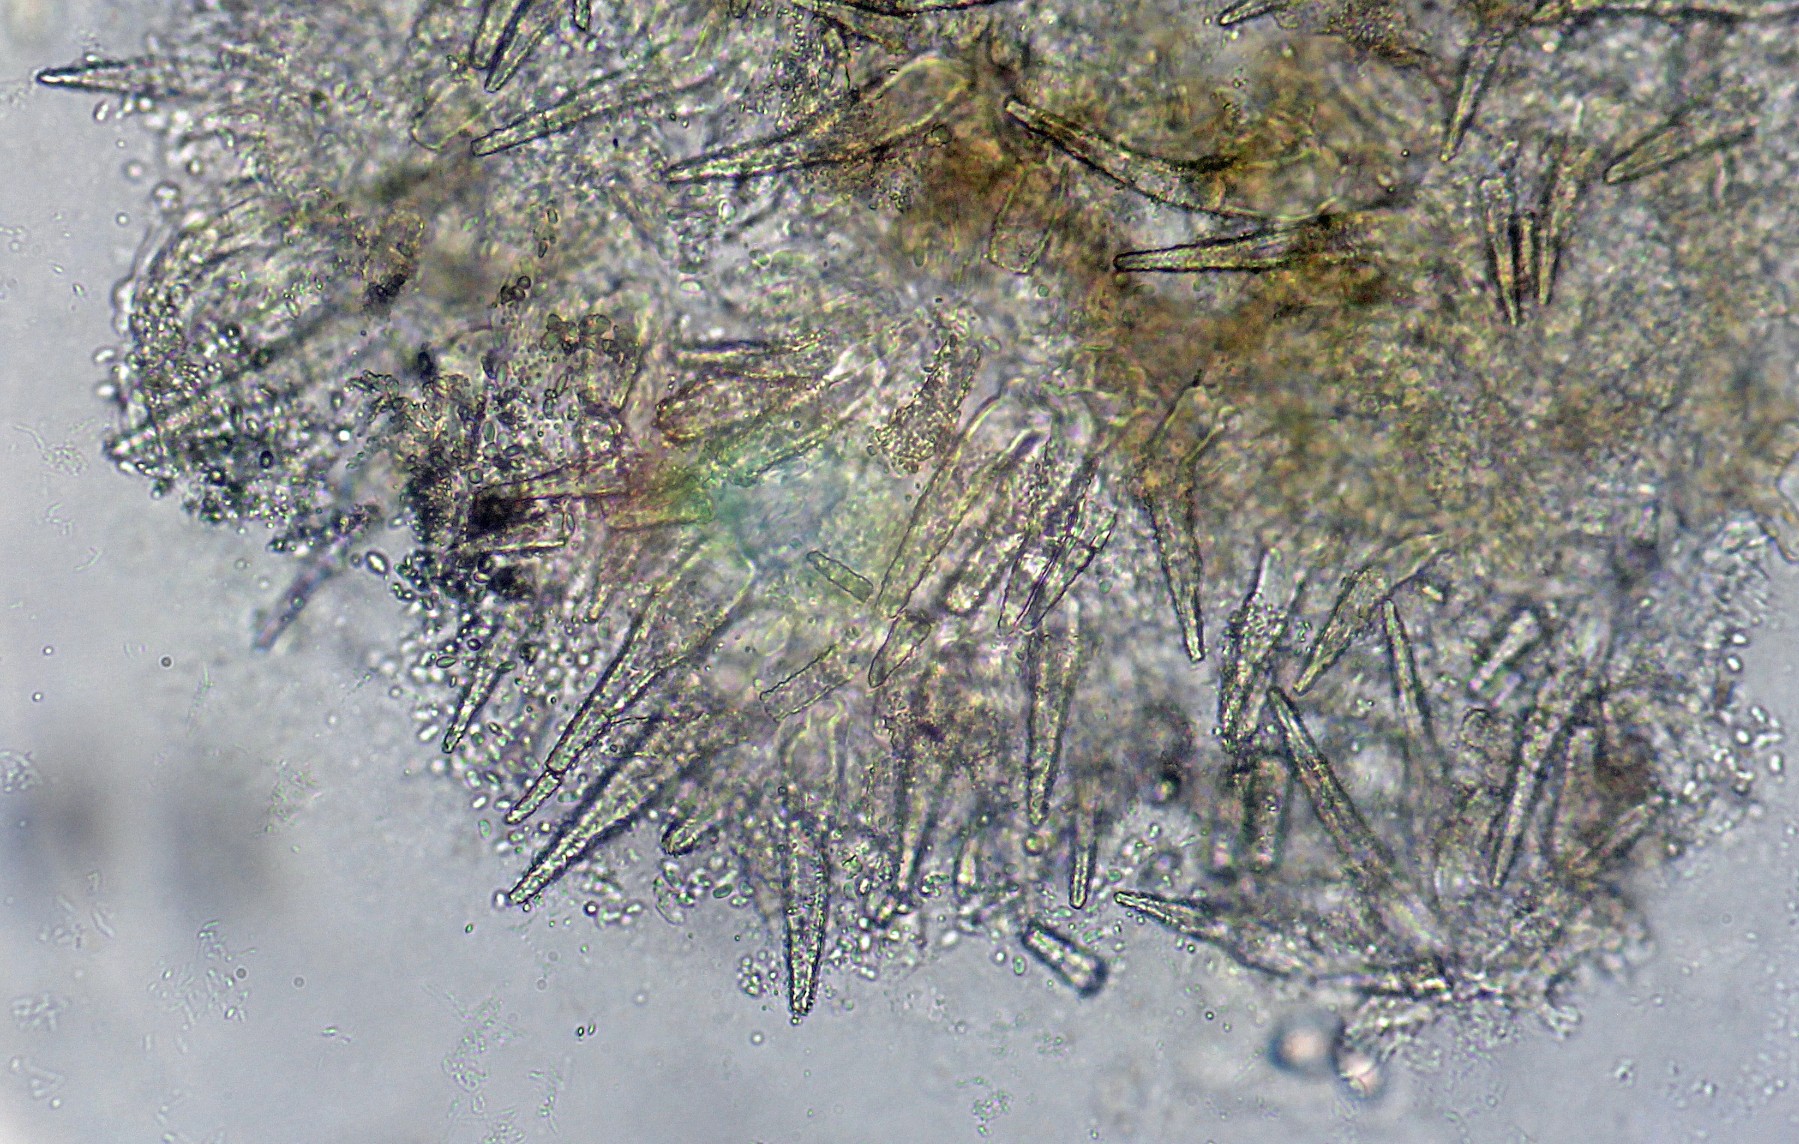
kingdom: Fungi
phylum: Basidiomycota
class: Agaricomycetes
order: Polyporales
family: Meruliaceae
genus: Scopuloides
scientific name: Scopuloides rimosa
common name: dughinde
